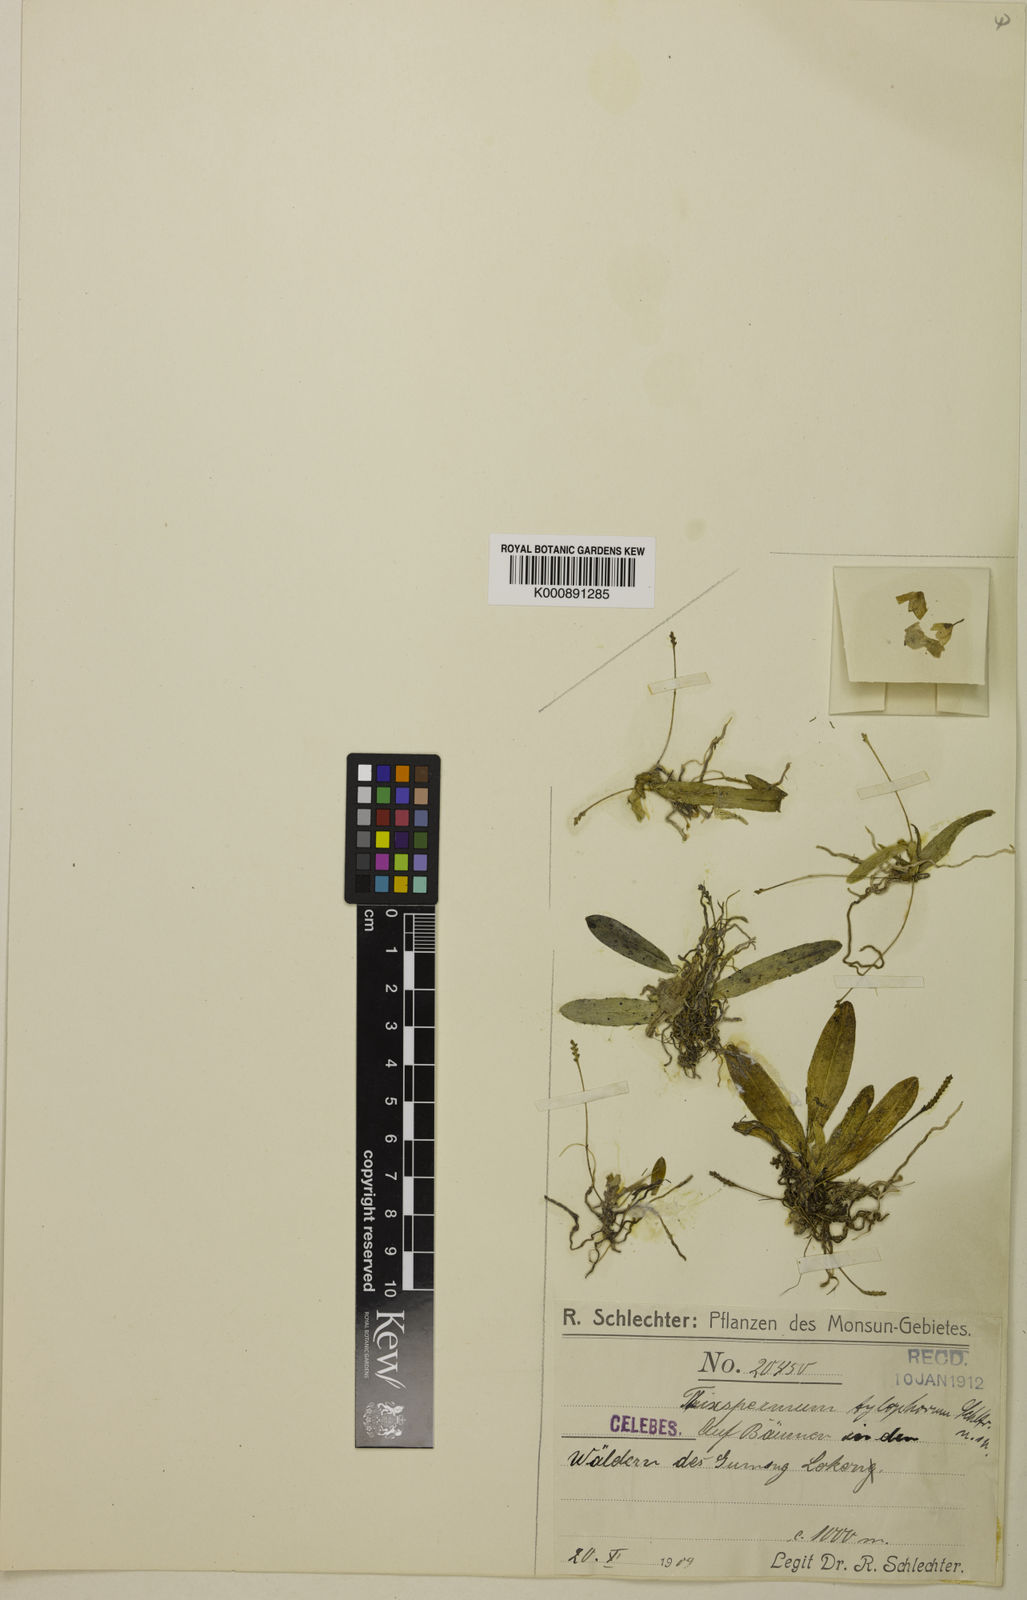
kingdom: Plantae
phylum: Tracheophyta
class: Liliopsida
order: Asparagales
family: Orchidaceae
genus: Thrixspermum
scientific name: Thrixspermum tylophorum
